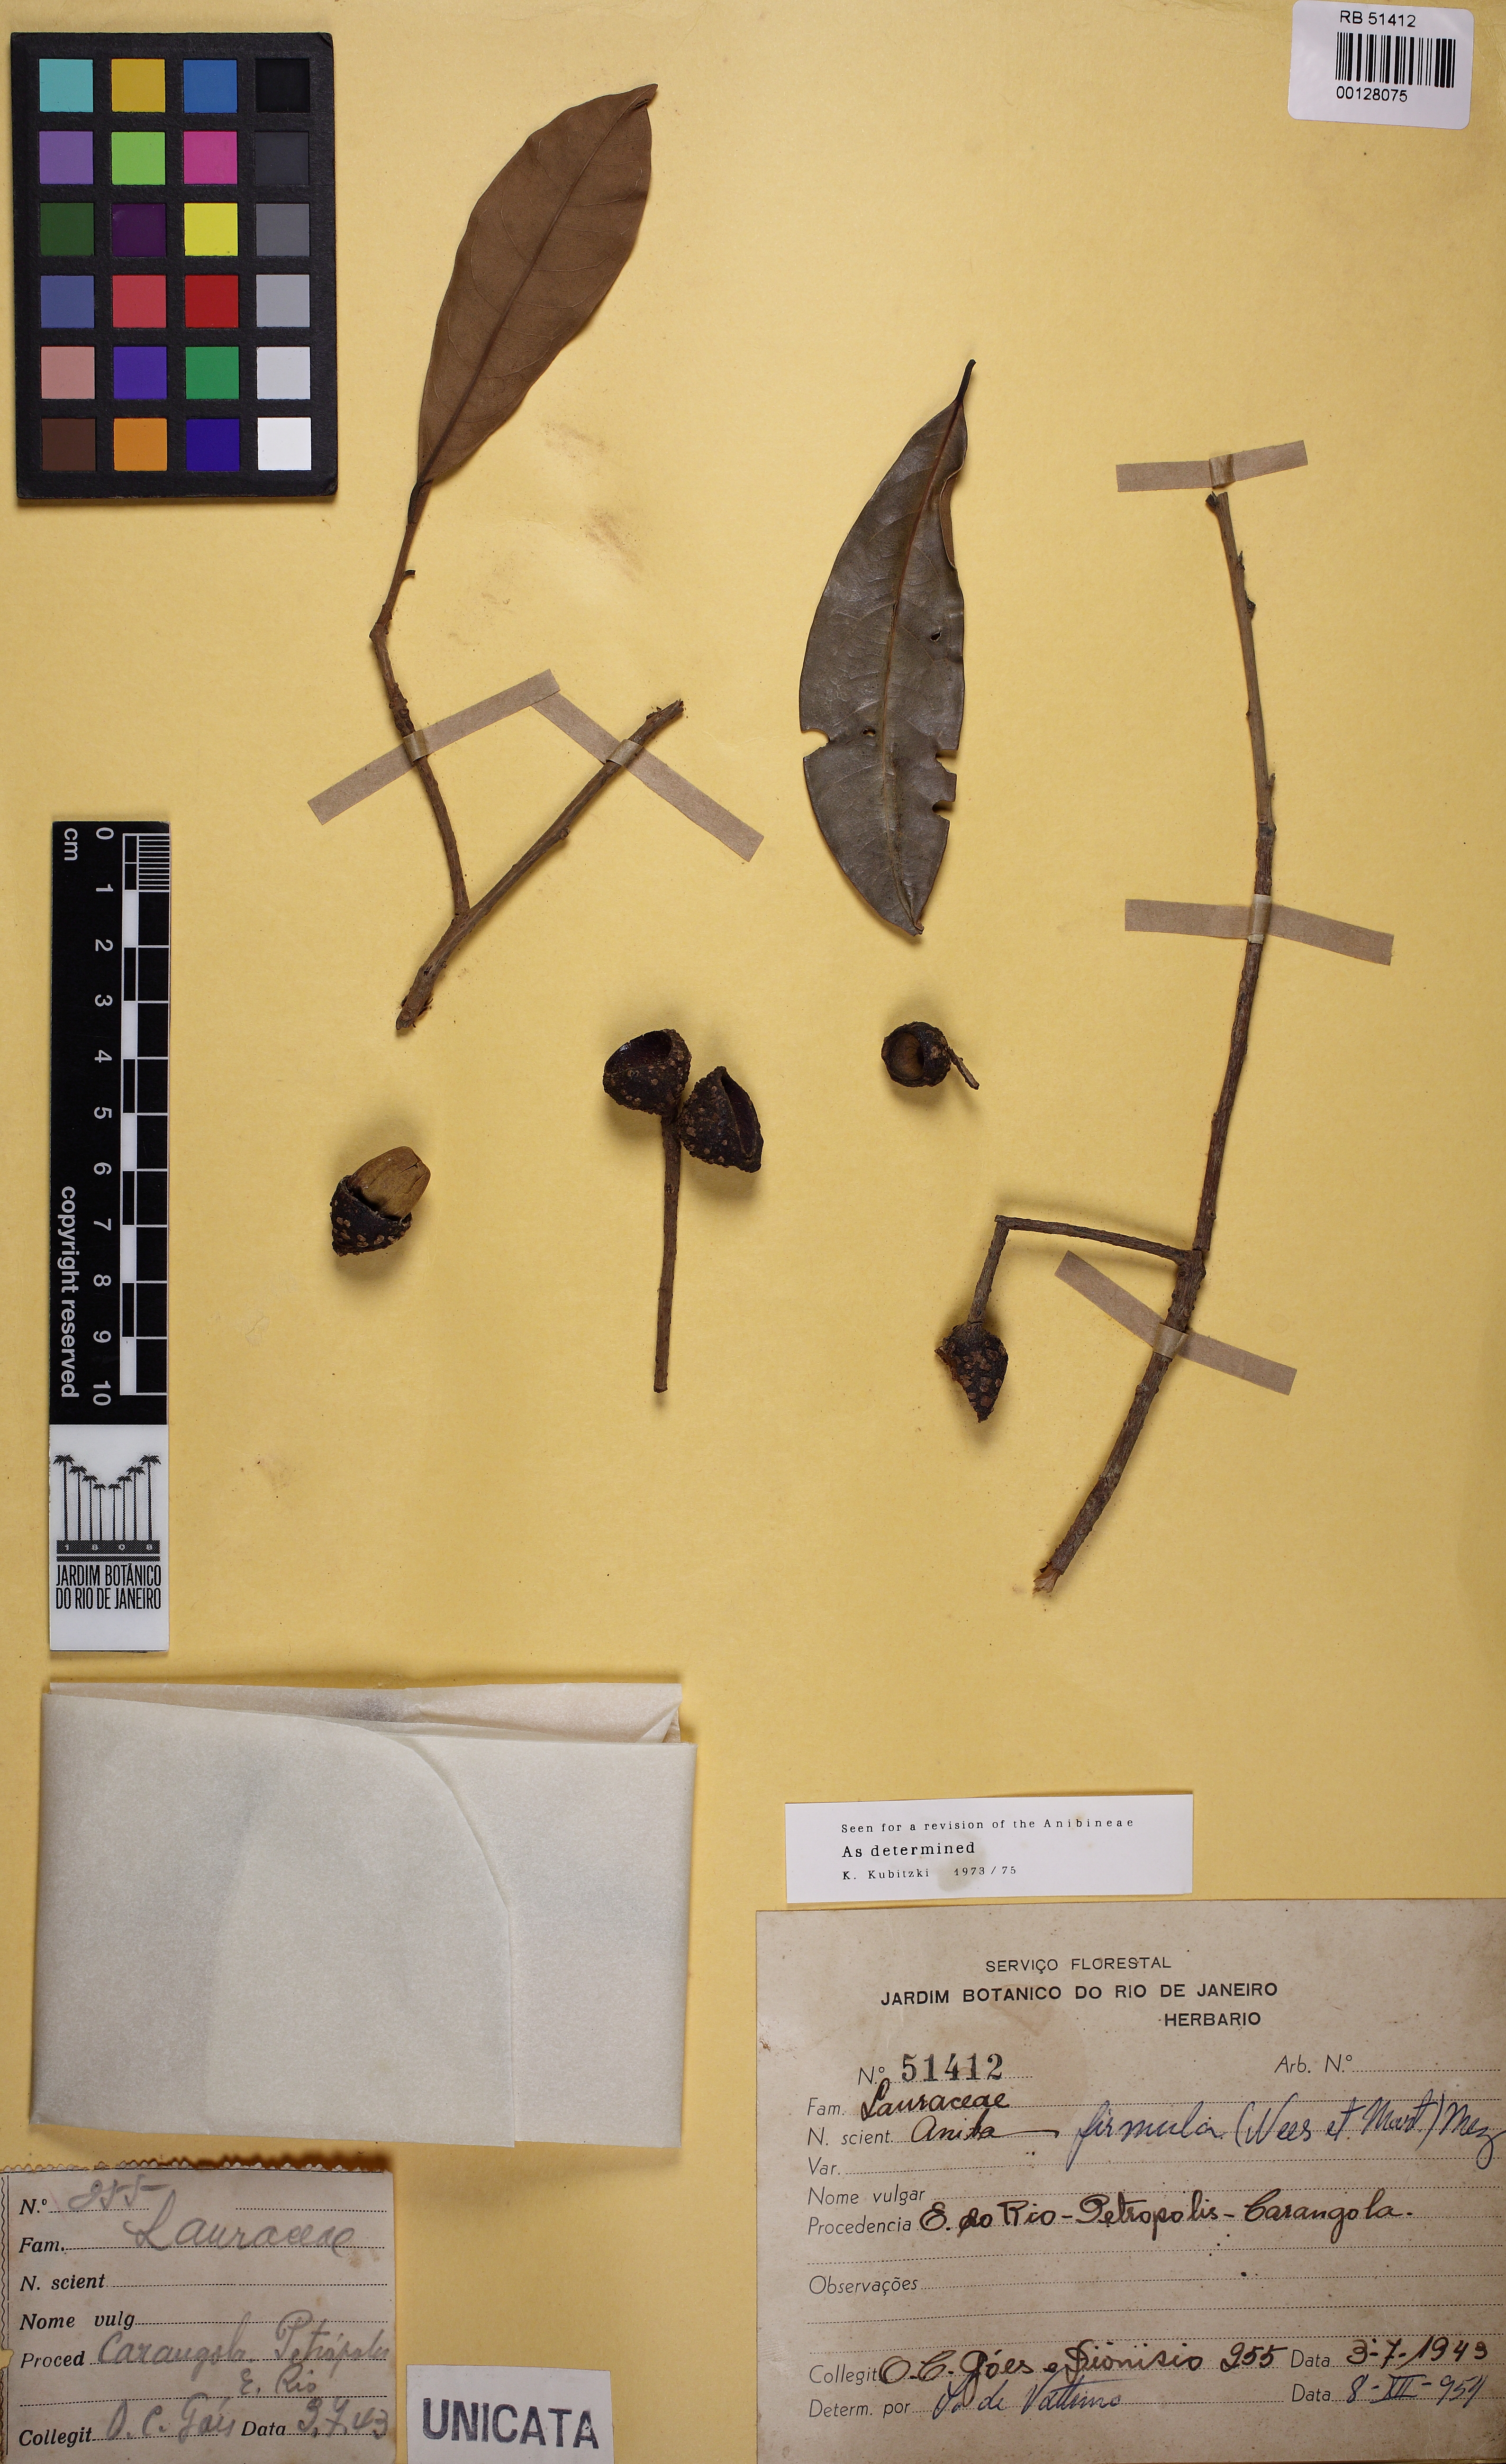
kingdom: Plantae
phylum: Tracheophyta
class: Magnoliopsida
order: Laurales
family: Lauraceae
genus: Aniba
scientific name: Aniba firmula
